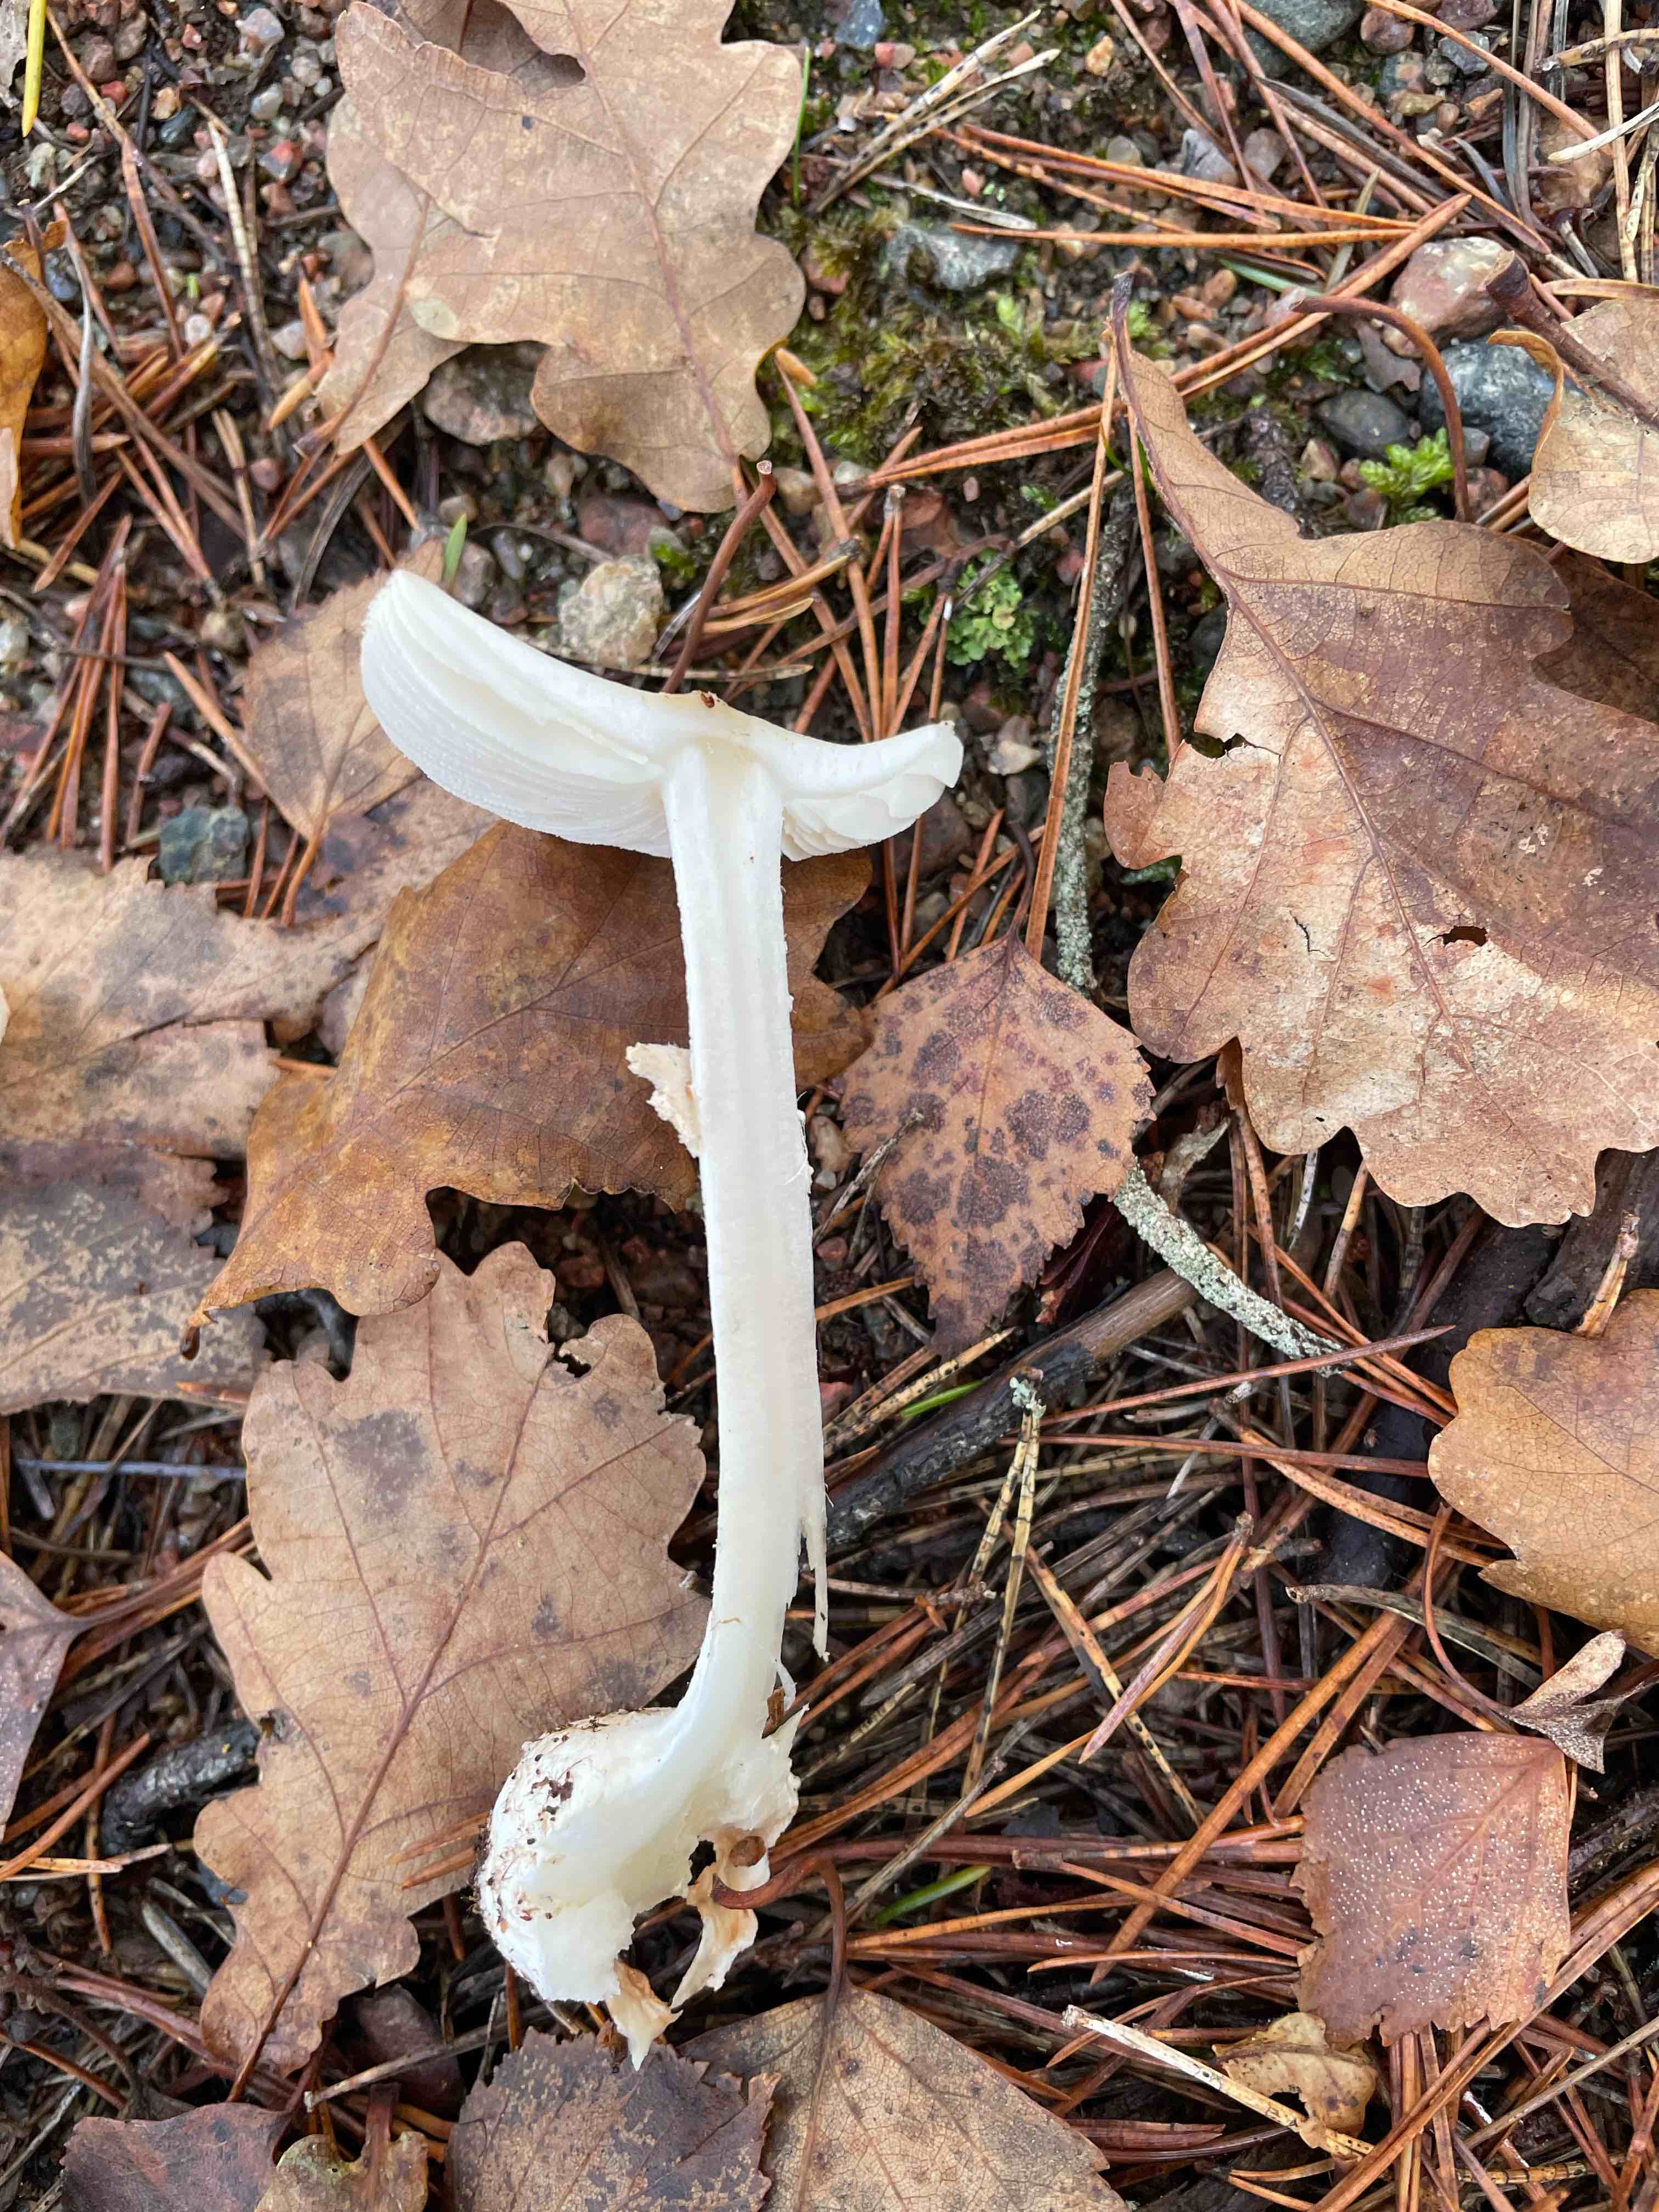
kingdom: Fungi
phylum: Basidiomycota
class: Agaricomycetes
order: Agaricales
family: Amanitaceae
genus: Amanita
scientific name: Amanita citrina
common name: kugleknoldet fluesvamp
